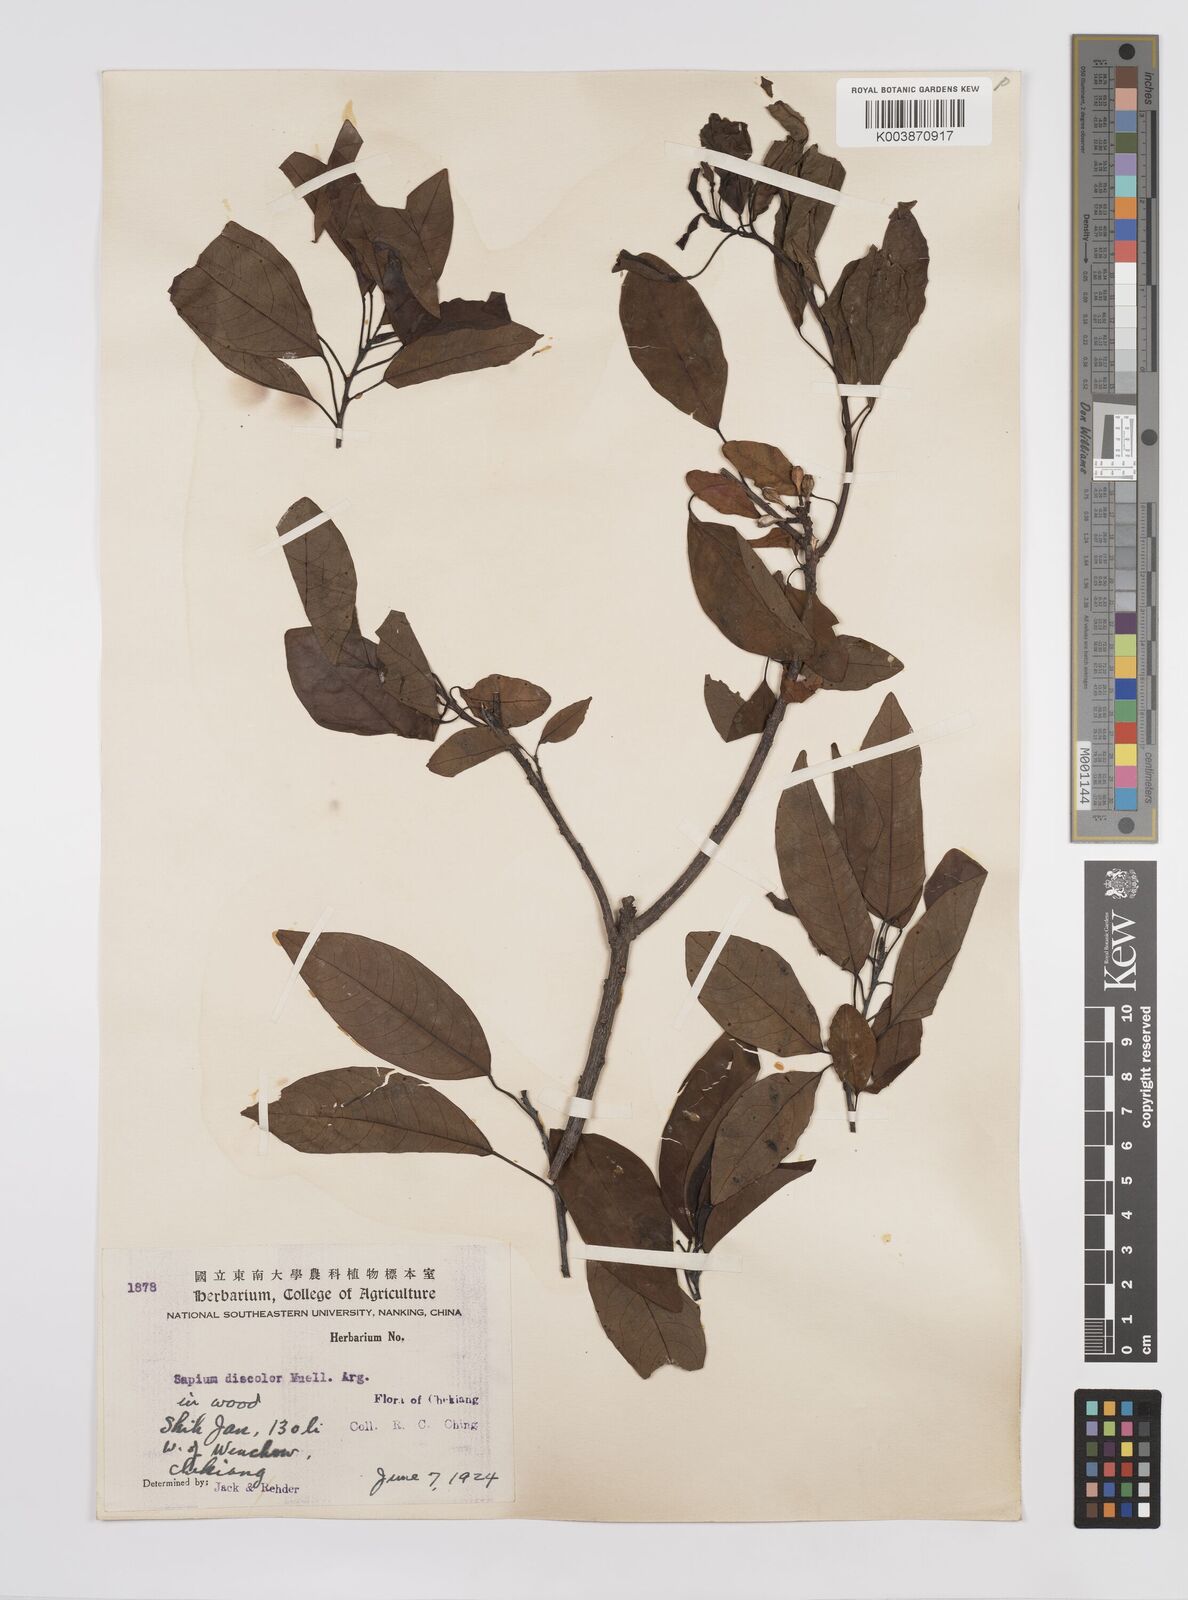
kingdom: Plantae
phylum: Tracheophyta
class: Magnoliopsida
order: Malpighiales
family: Euphorbiaceae
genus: Triadica
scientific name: Triadica cochinchinensis
